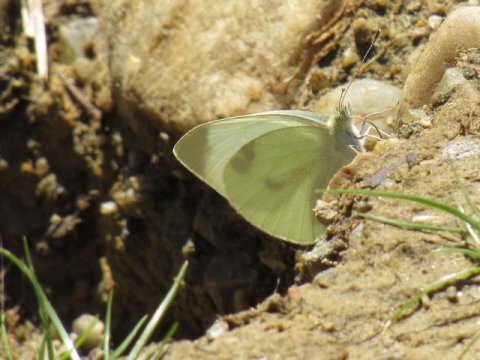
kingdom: Animalia
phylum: Arthropoda
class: Insecta
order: Lepidoptera
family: Pieridae
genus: Pieris
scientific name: Pieris rapae
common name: Cabbage White
